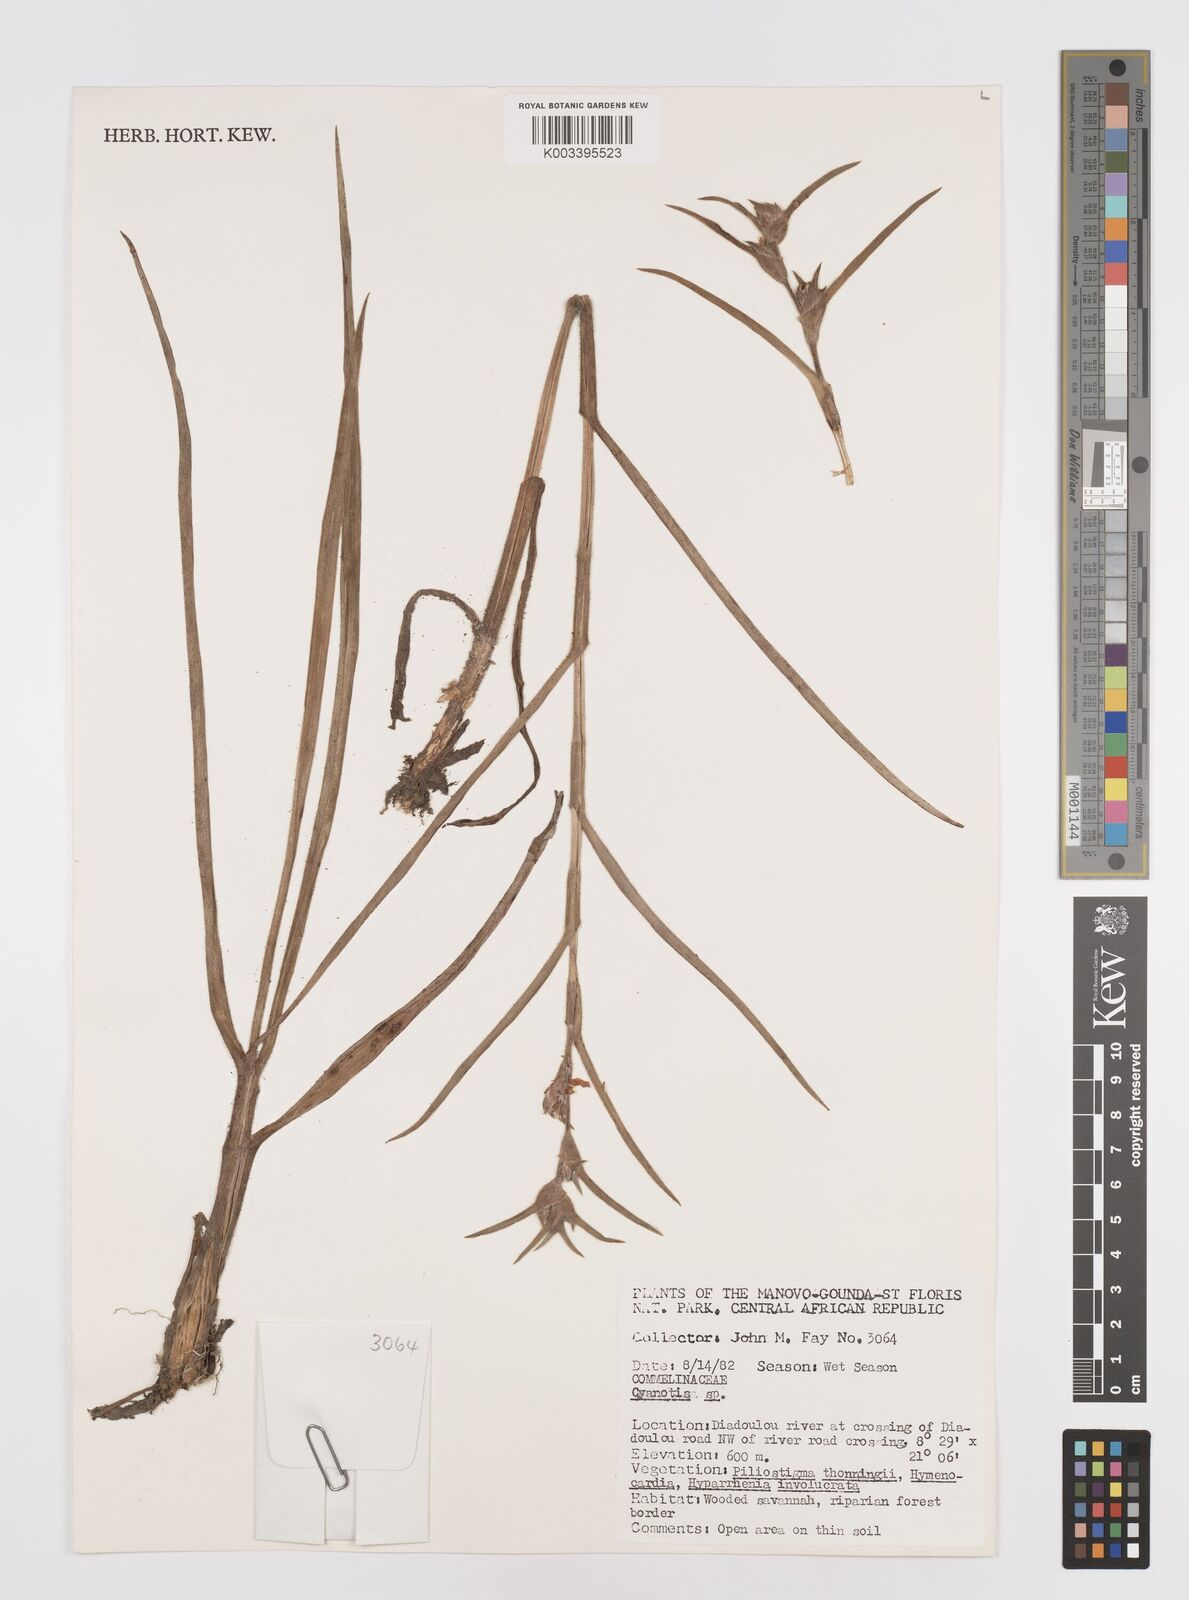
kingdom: Plantae
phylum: Tracheophyta
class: Liliopsida
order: Commelinales
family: Commelinaceae
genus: Cyanotis
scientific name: Cyanotis
